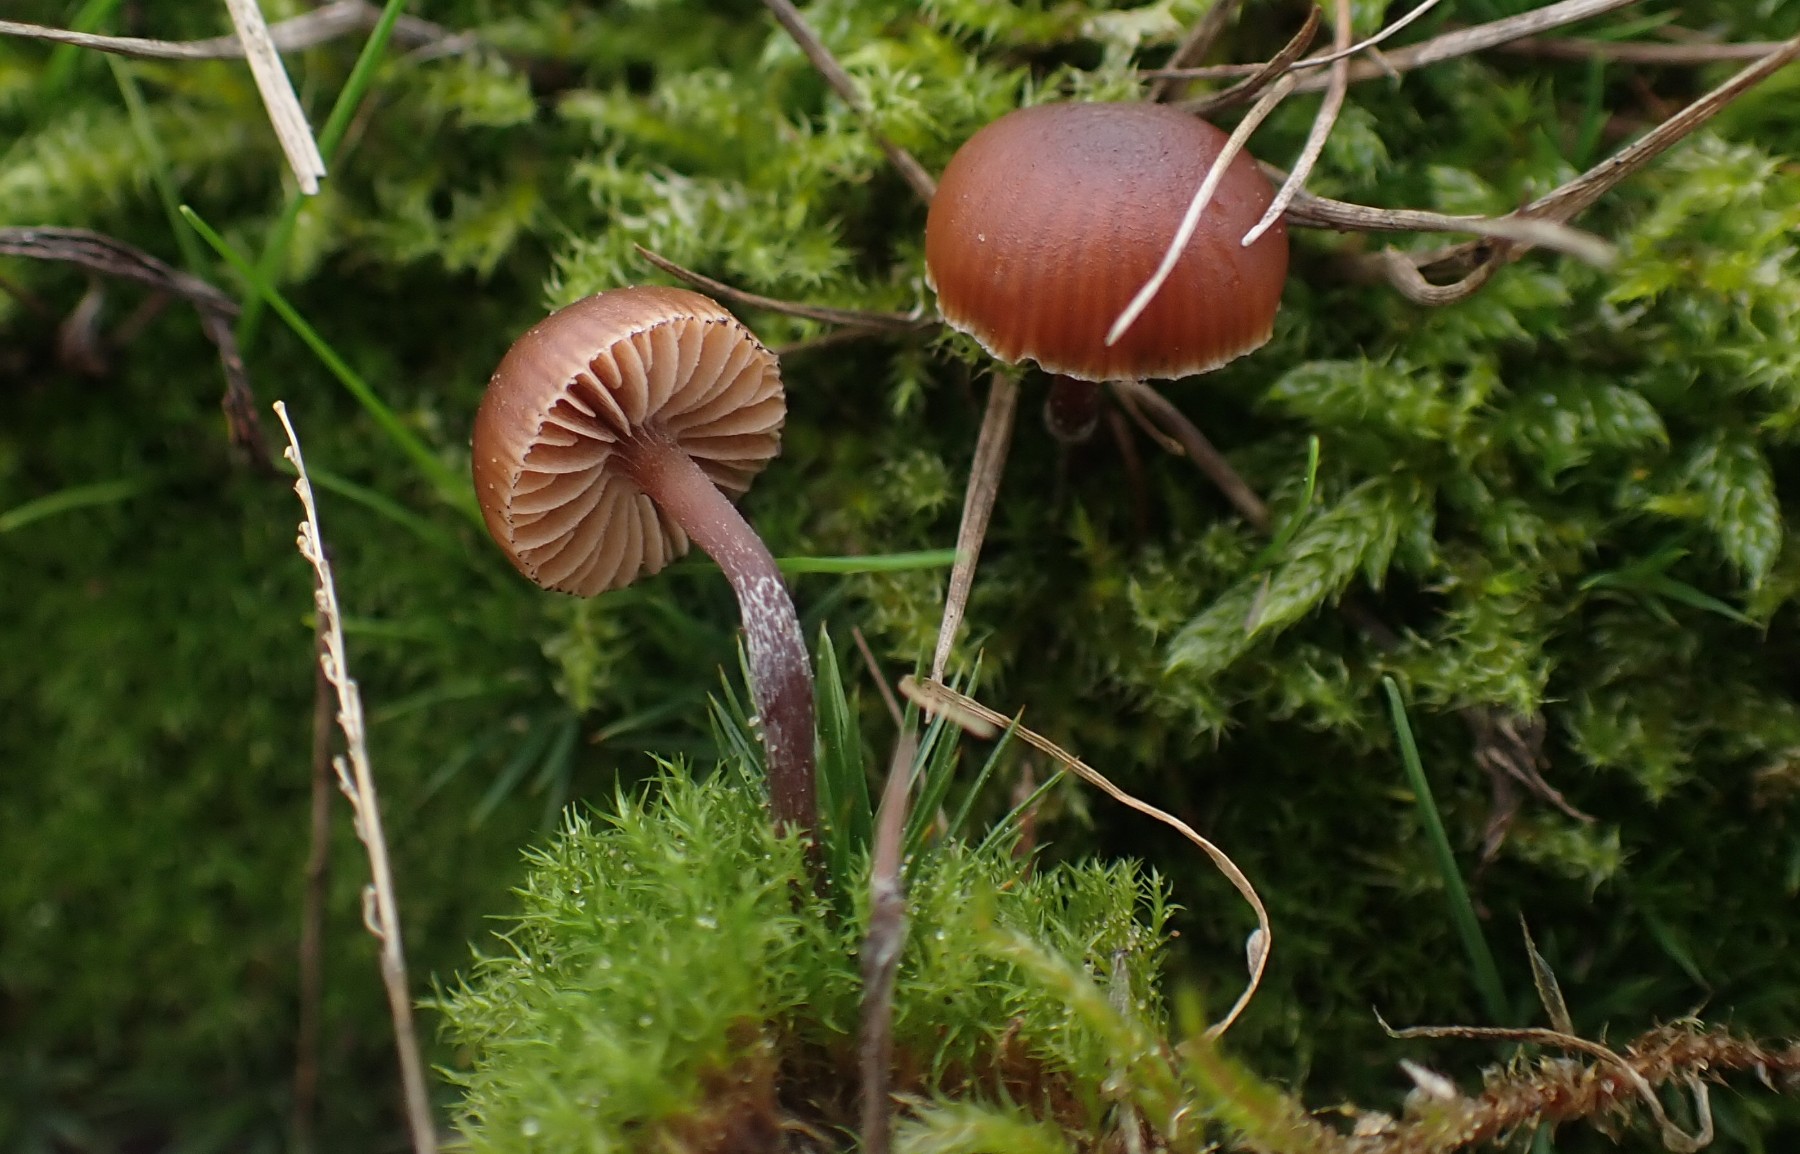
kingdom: Fungi
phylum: Basidiomycota
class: Agaricomycetes
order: Agaricales
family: Strophariaceae
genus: Deconica
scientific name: Deconica montana
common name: rødbrun stråhat
